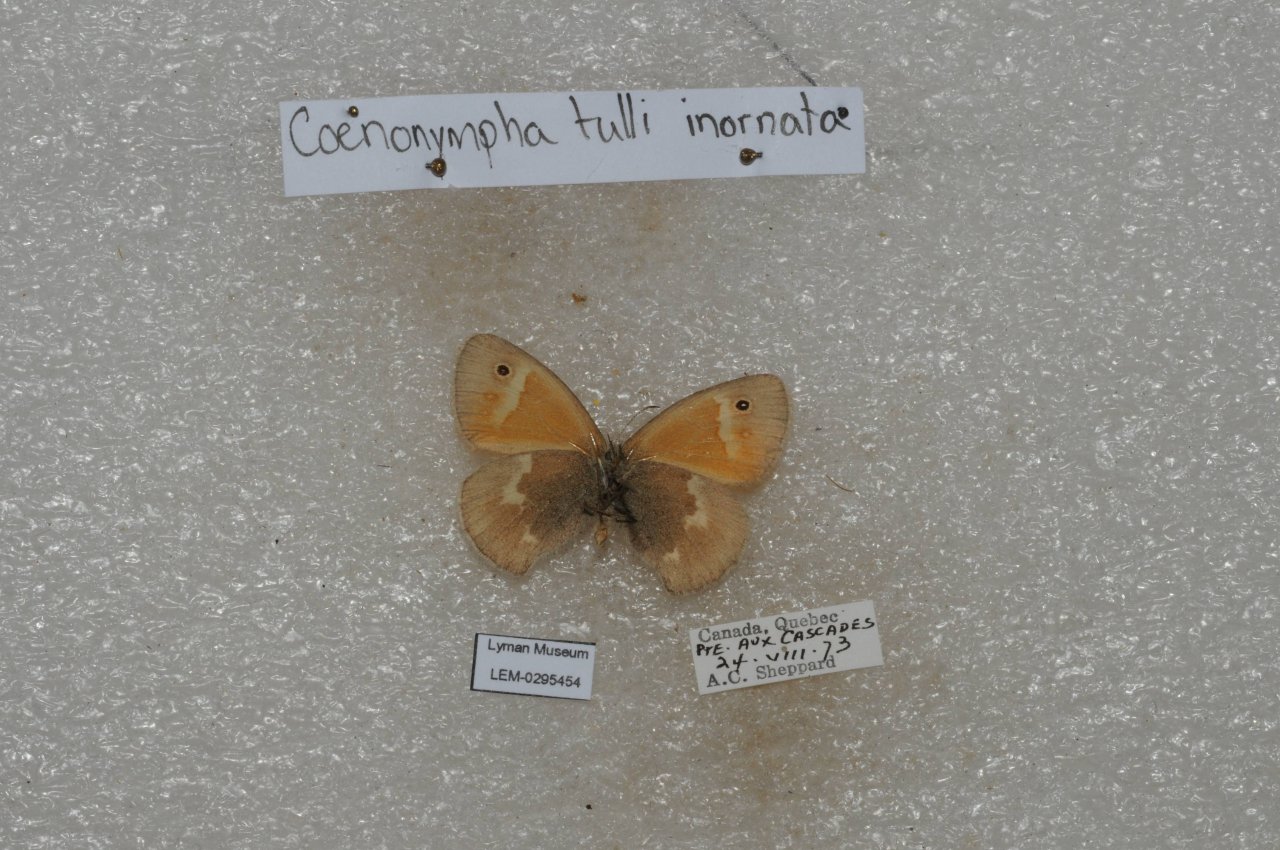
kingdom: Animalia
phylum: Arthropoda
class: Insecta
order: Lepidoptera
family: Nymphalidae
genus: Coenonympha
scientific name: Coenonympha tullia
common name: Large Heath
